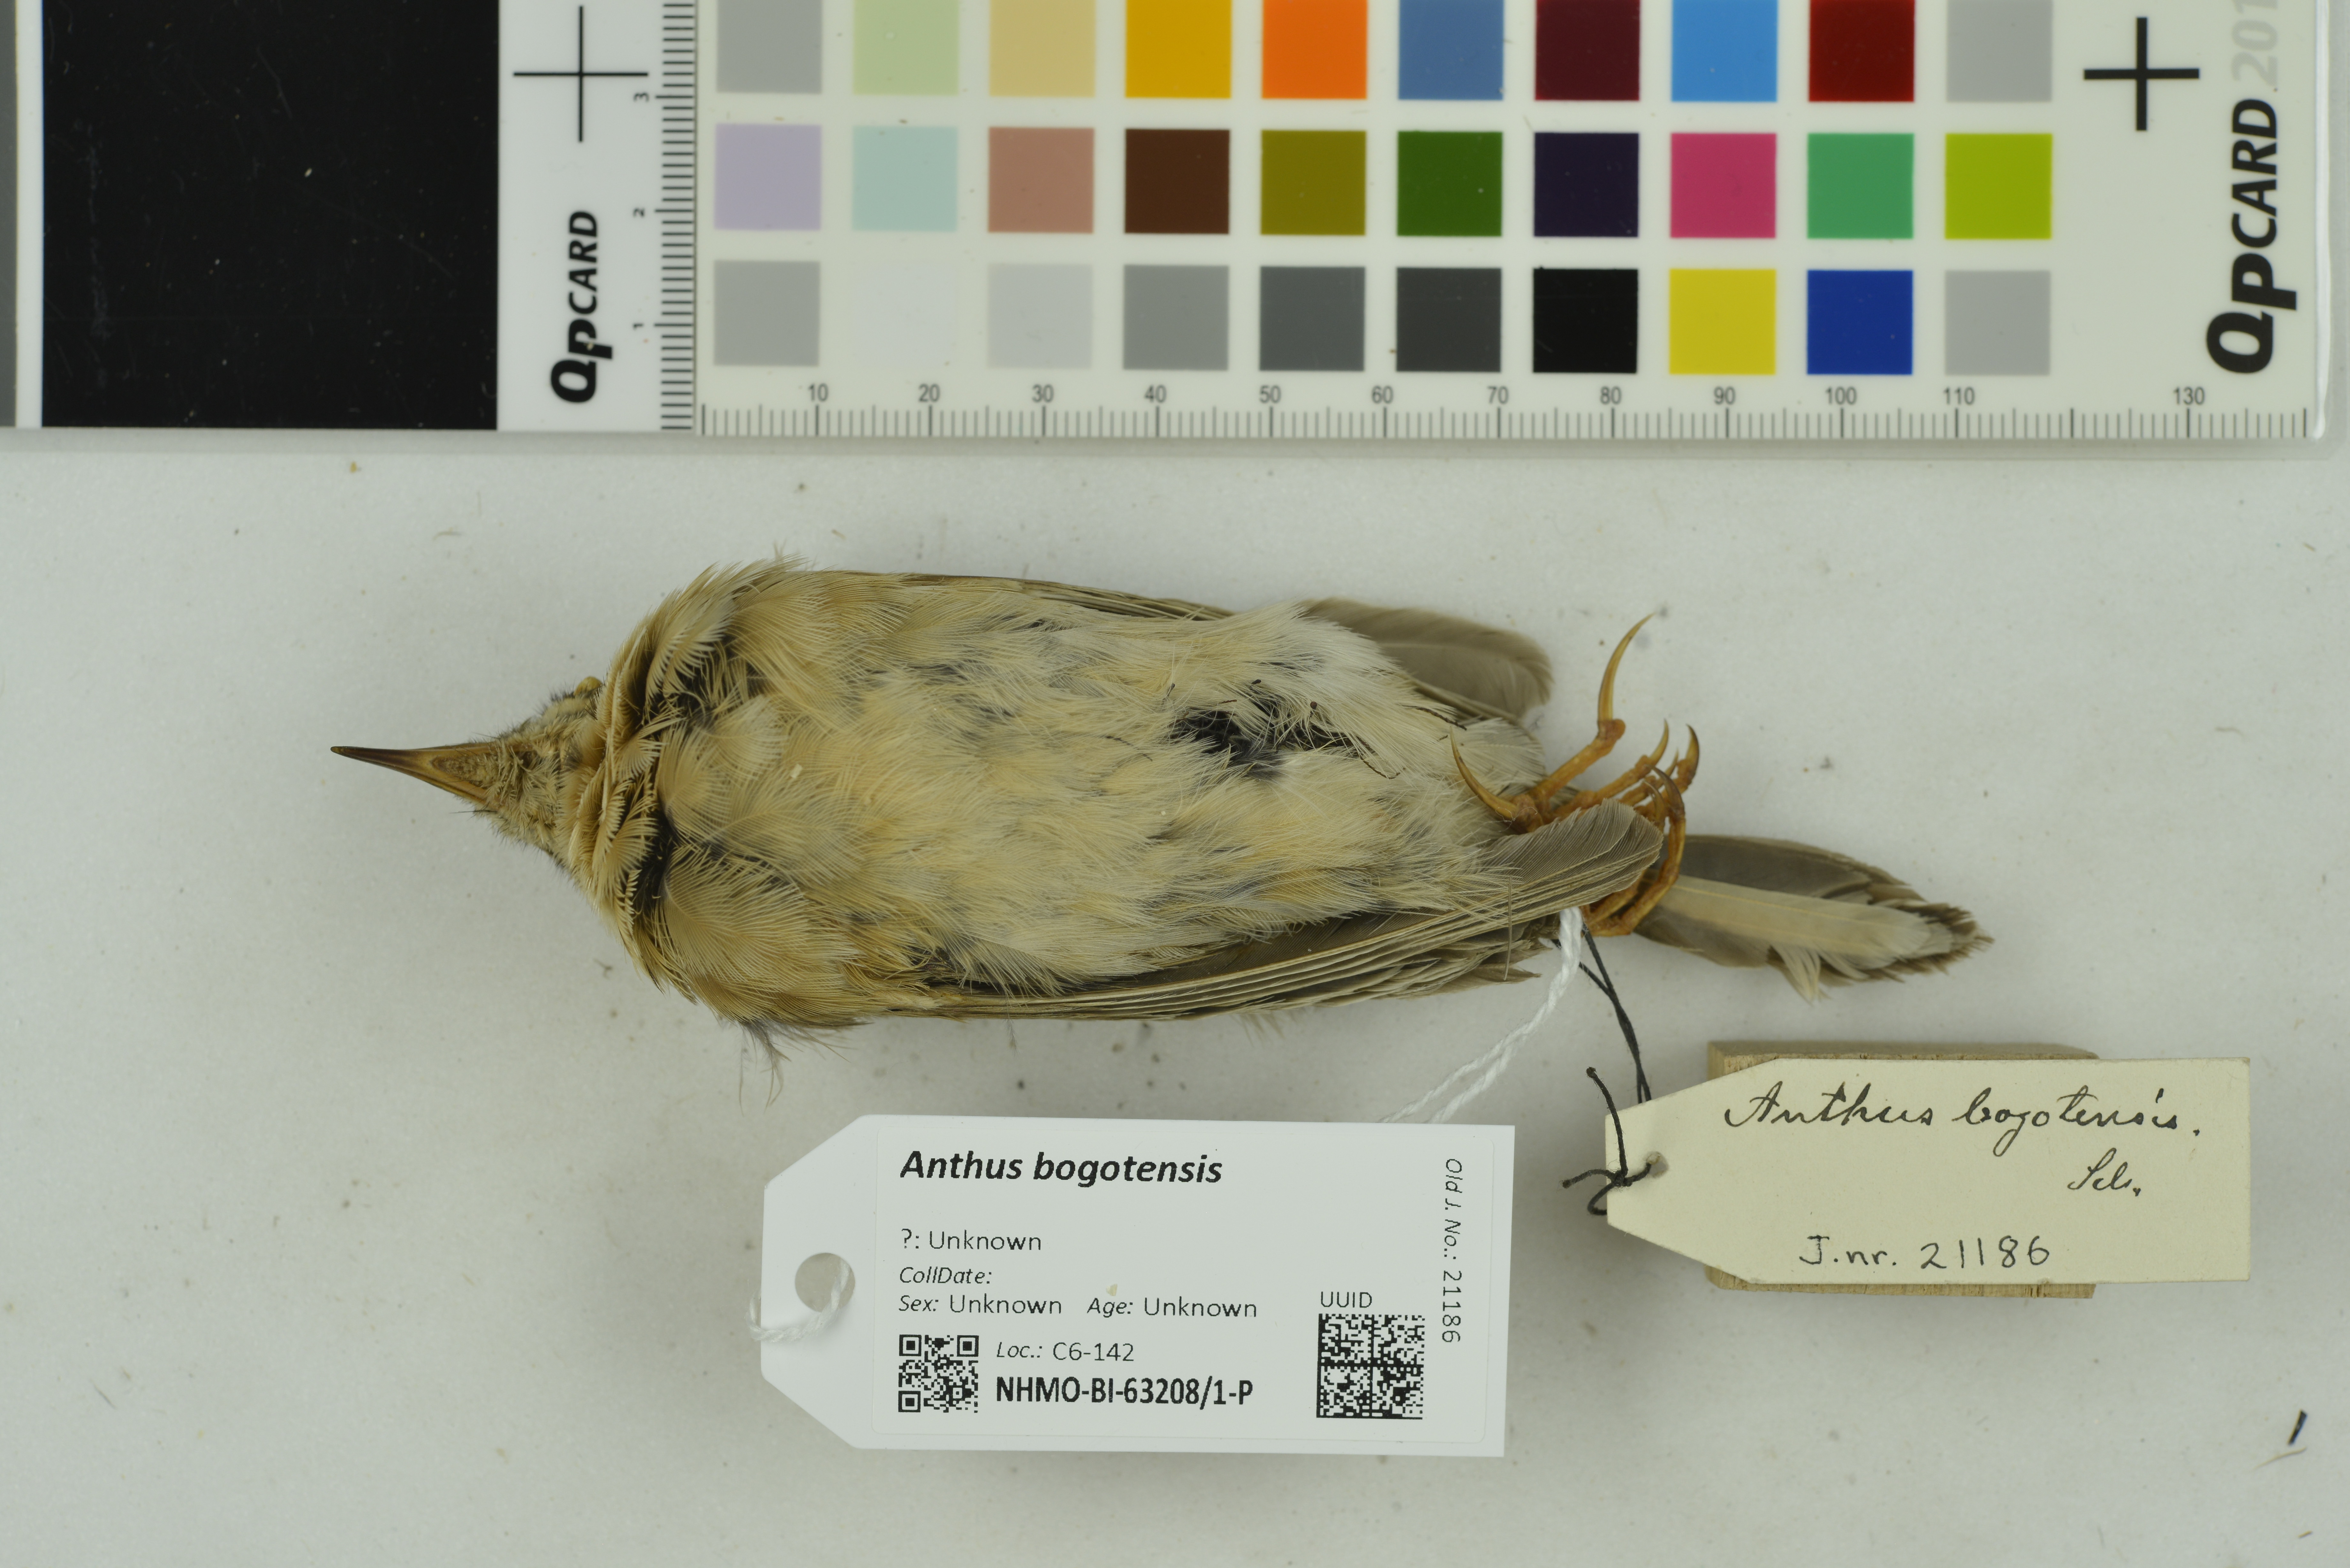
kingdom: Animalia
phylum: Chordata
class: Aves
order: Passeriformes
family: Motacillidae
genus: Anthus
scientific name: Anthus bogotensis
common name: Paramo pipit
